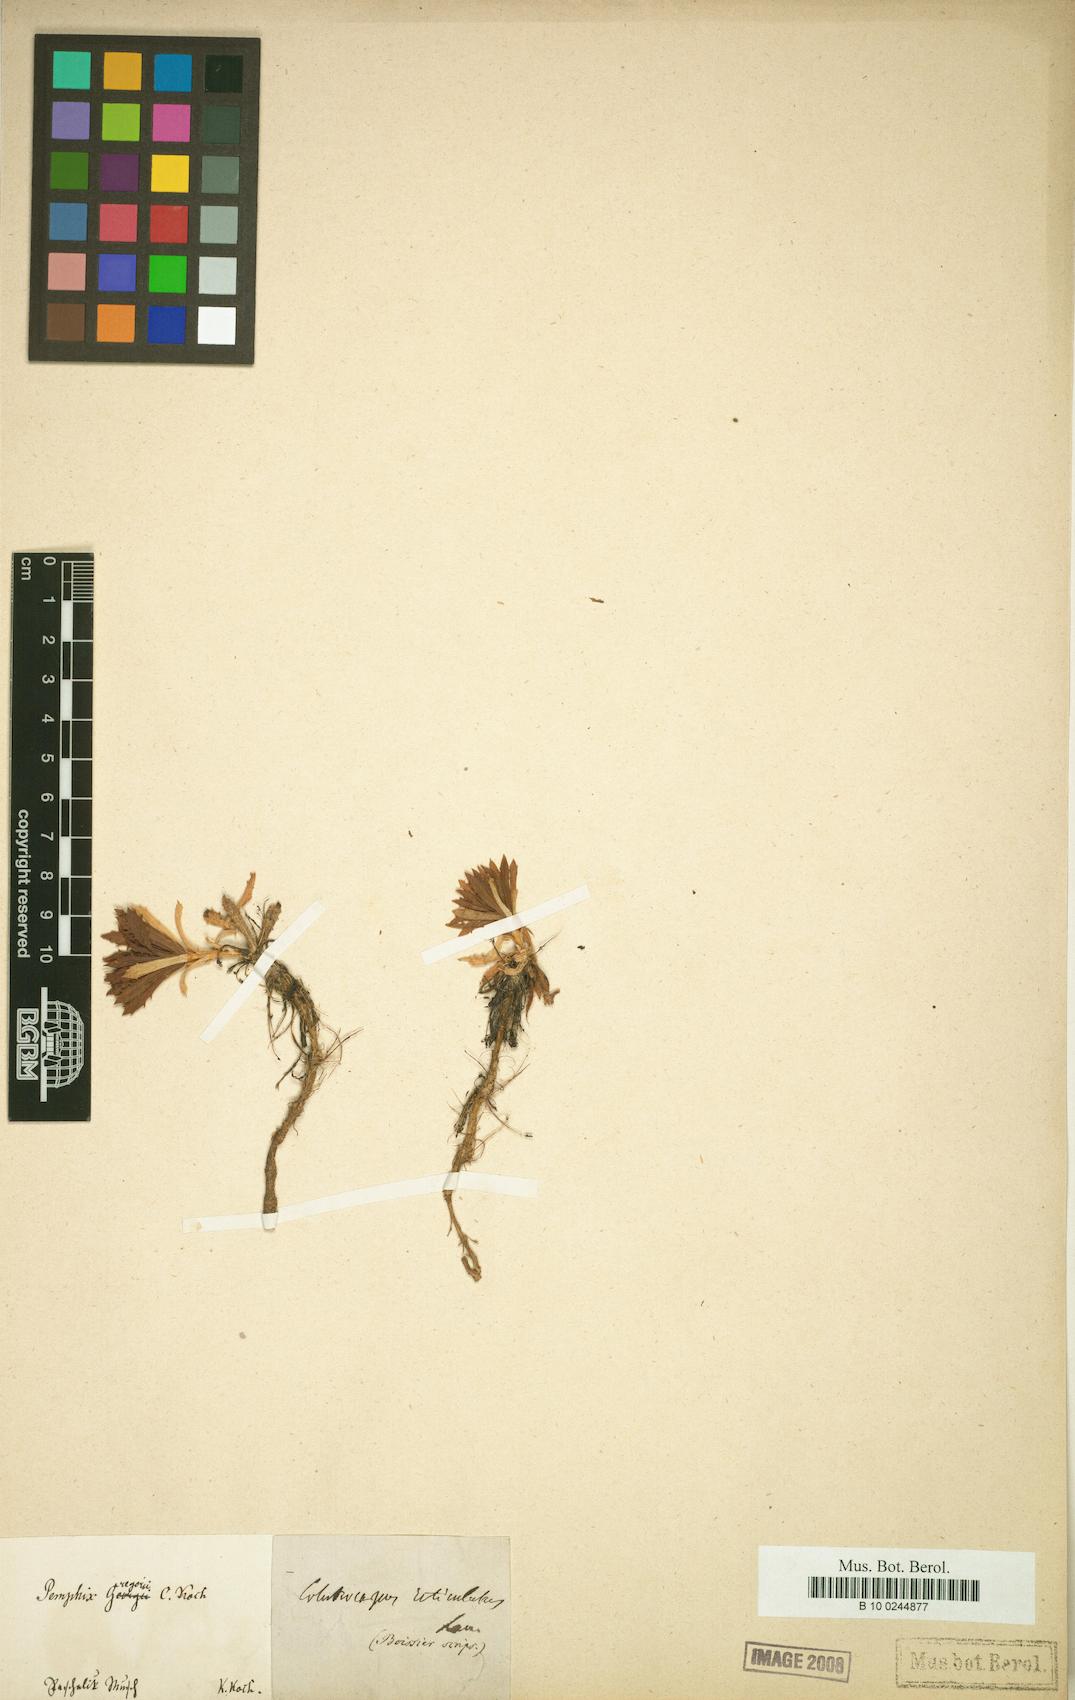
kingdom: Plantae
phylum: Tracheophyta
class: Magnoliopsida
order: Brassicales
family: Brassicaceae
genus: Noccaea
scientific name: Noccaea vesicaria
